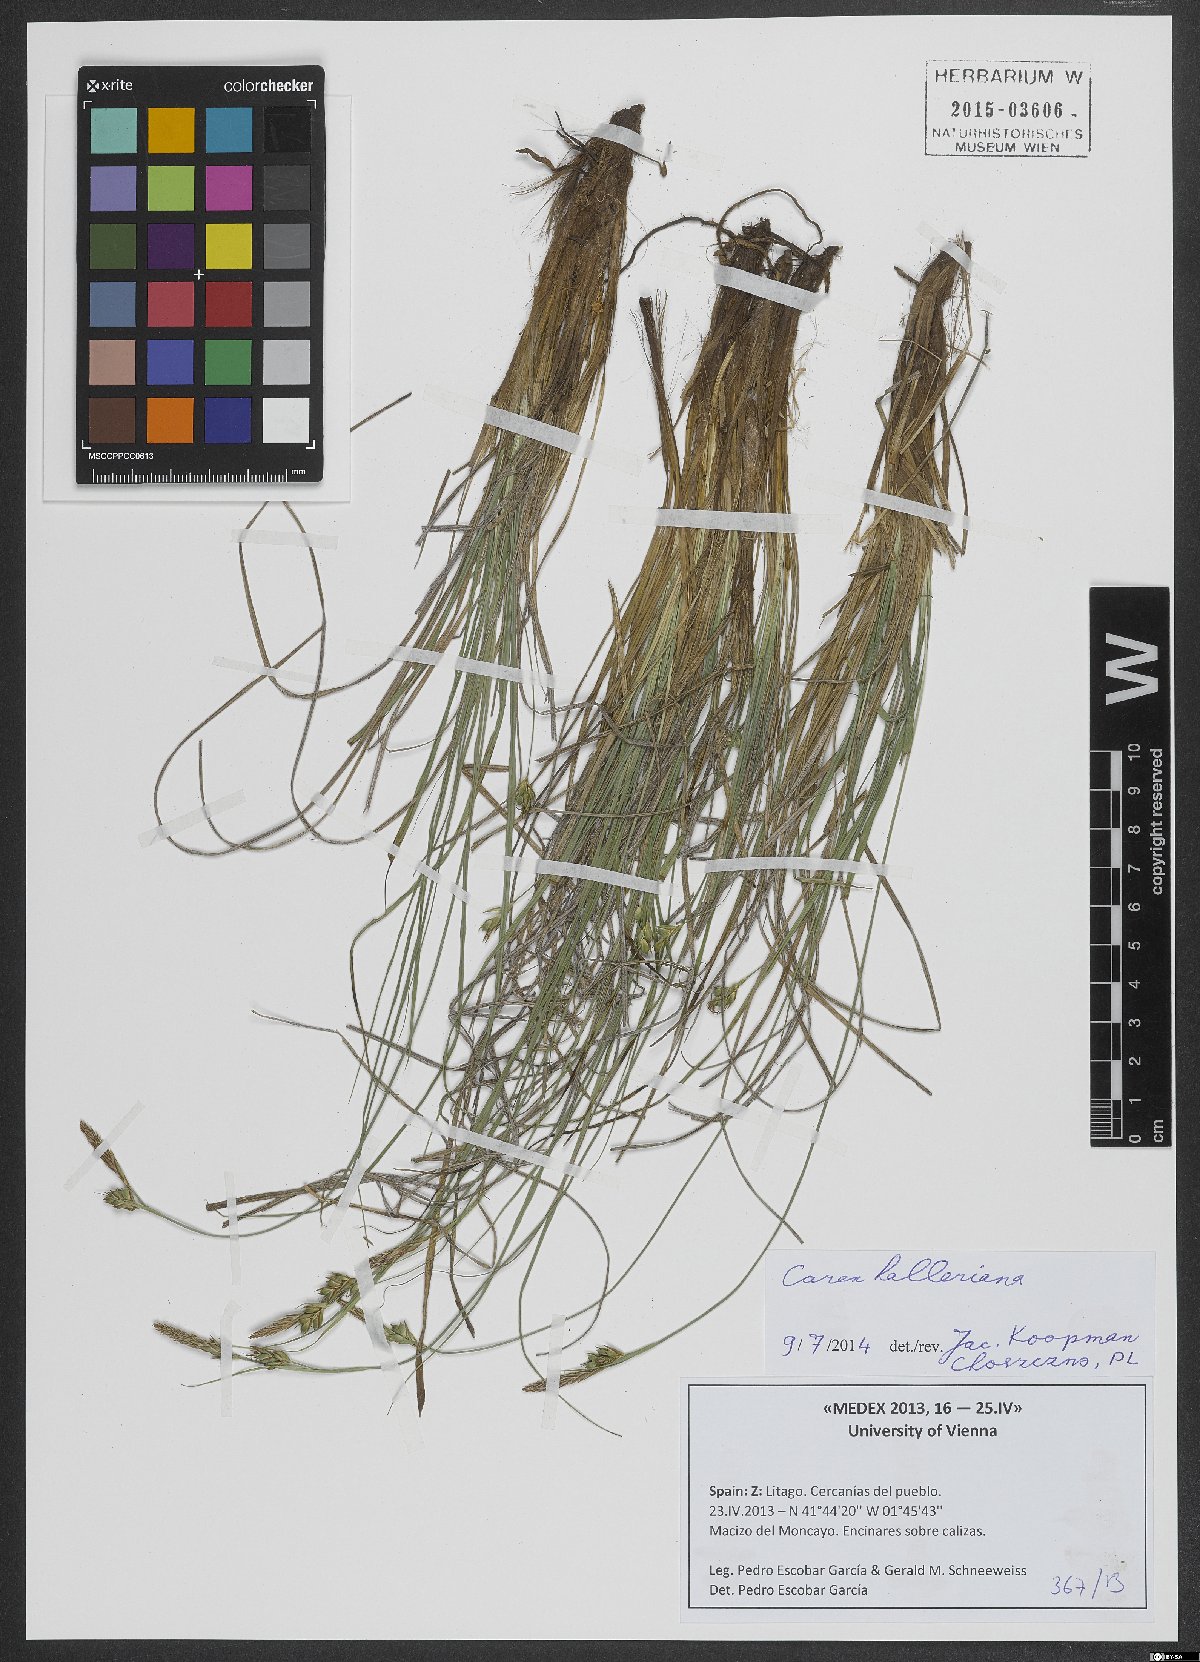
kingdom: Plantae
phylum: Tracheophyta
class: Liliopsida
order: Poales
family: Cyperaceae
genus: Carex
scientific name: Carex halleriana
